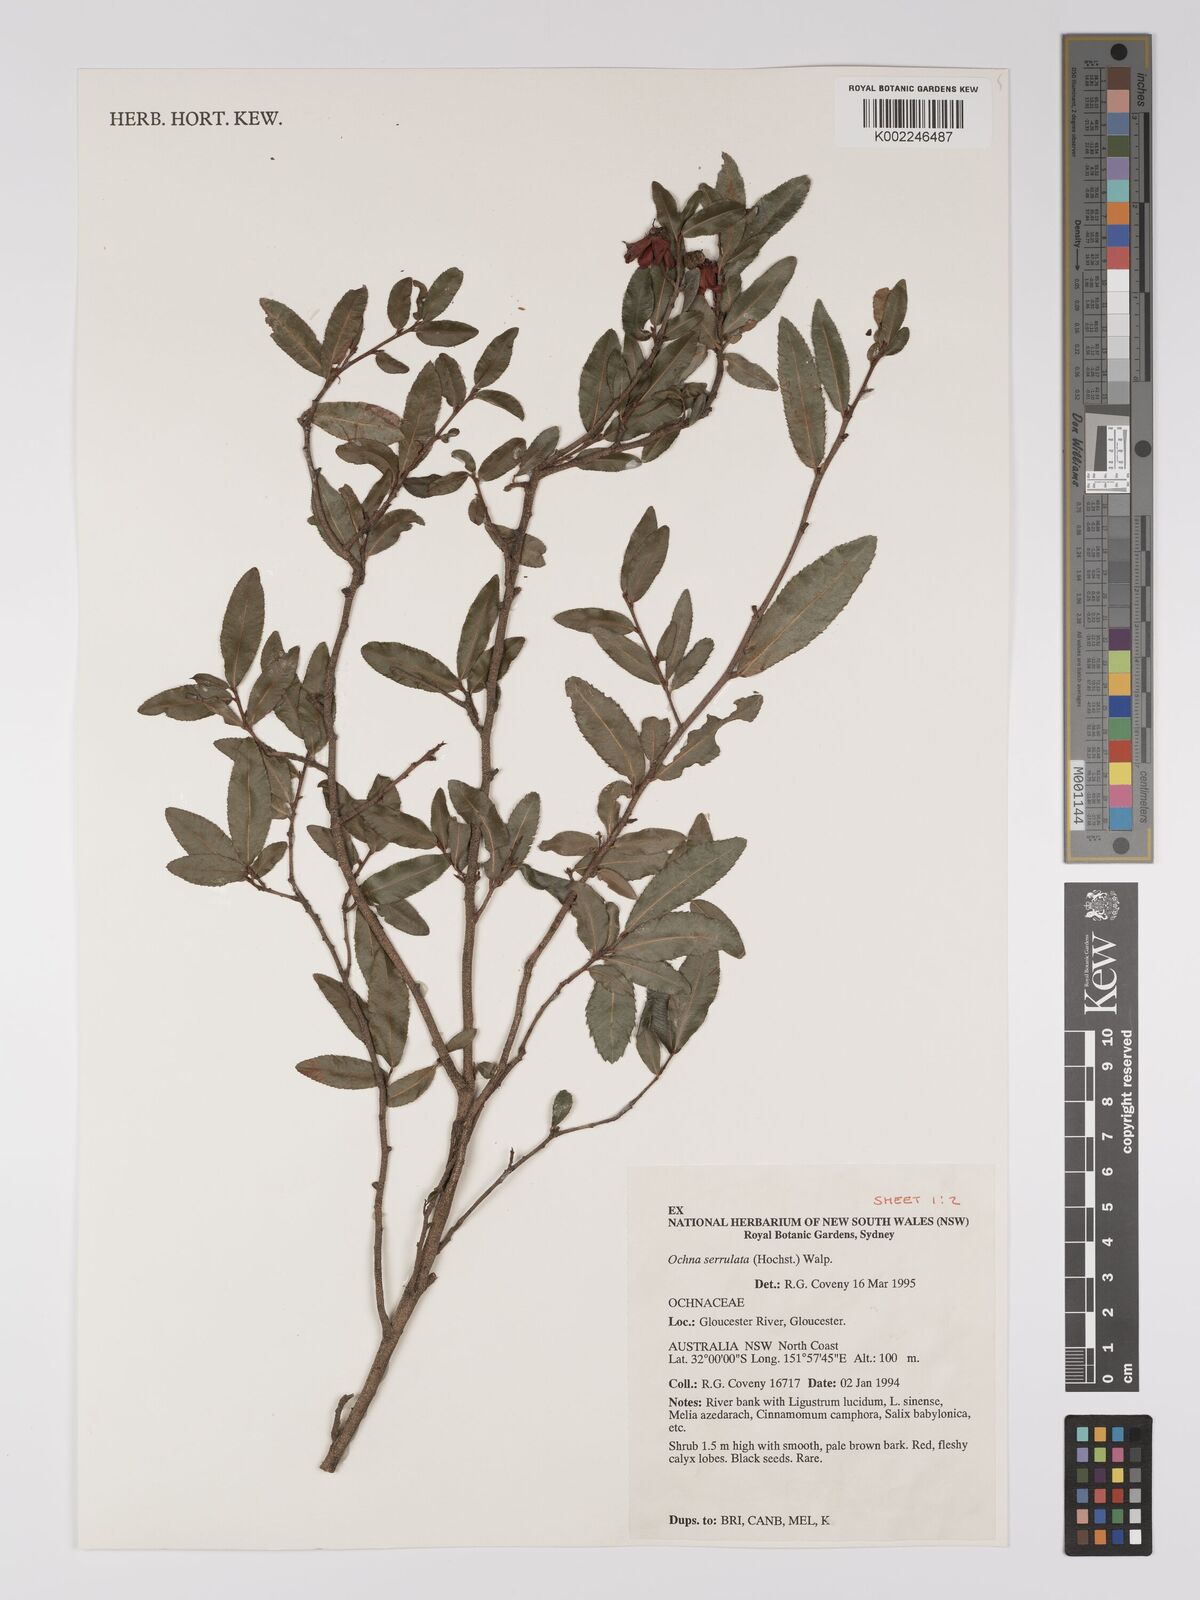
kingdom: Plantae
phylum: Tracheophyta
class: Magnoliopsida
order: Malpighiales
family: Ochnaceae
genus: Ochna
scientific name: Ochna atropurpurea
